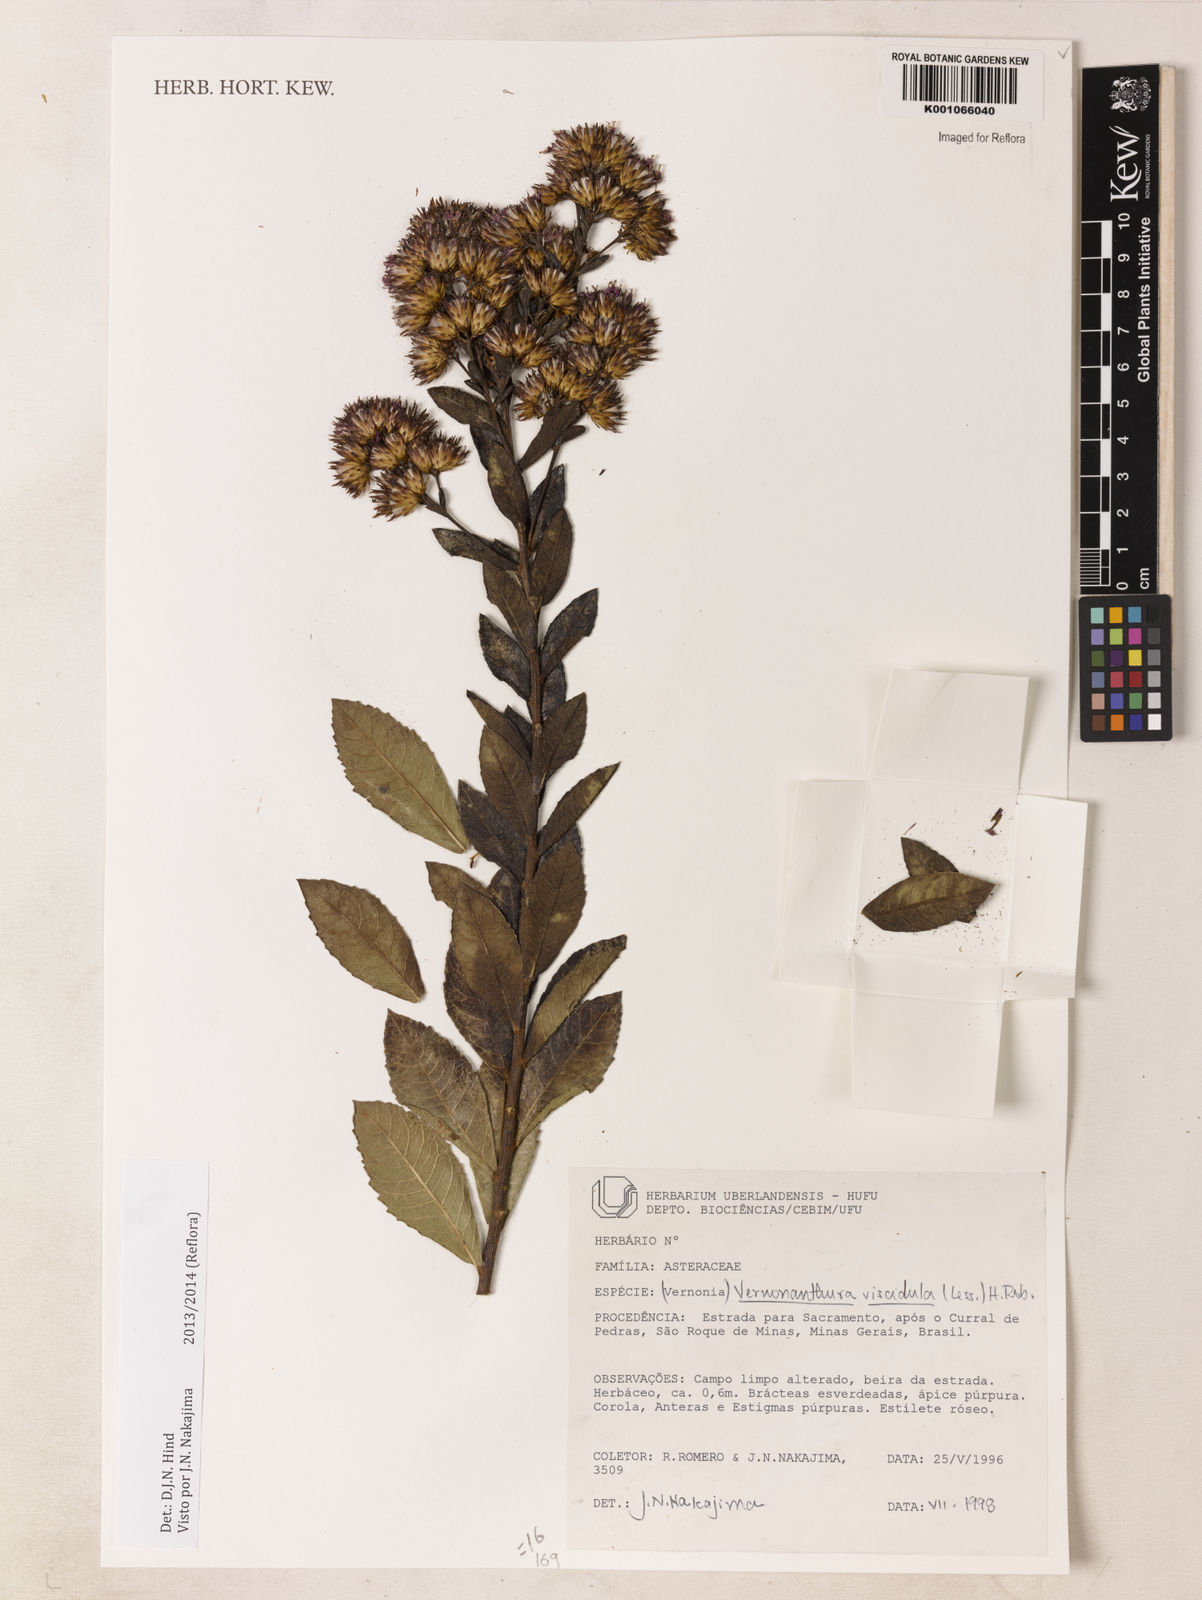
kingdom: Plantae
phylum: Tracheophyta
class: Magnoliopsida
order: Asterales
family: Asteraceae
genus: Vernonanthura
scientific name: Vernonanthura viscidula
